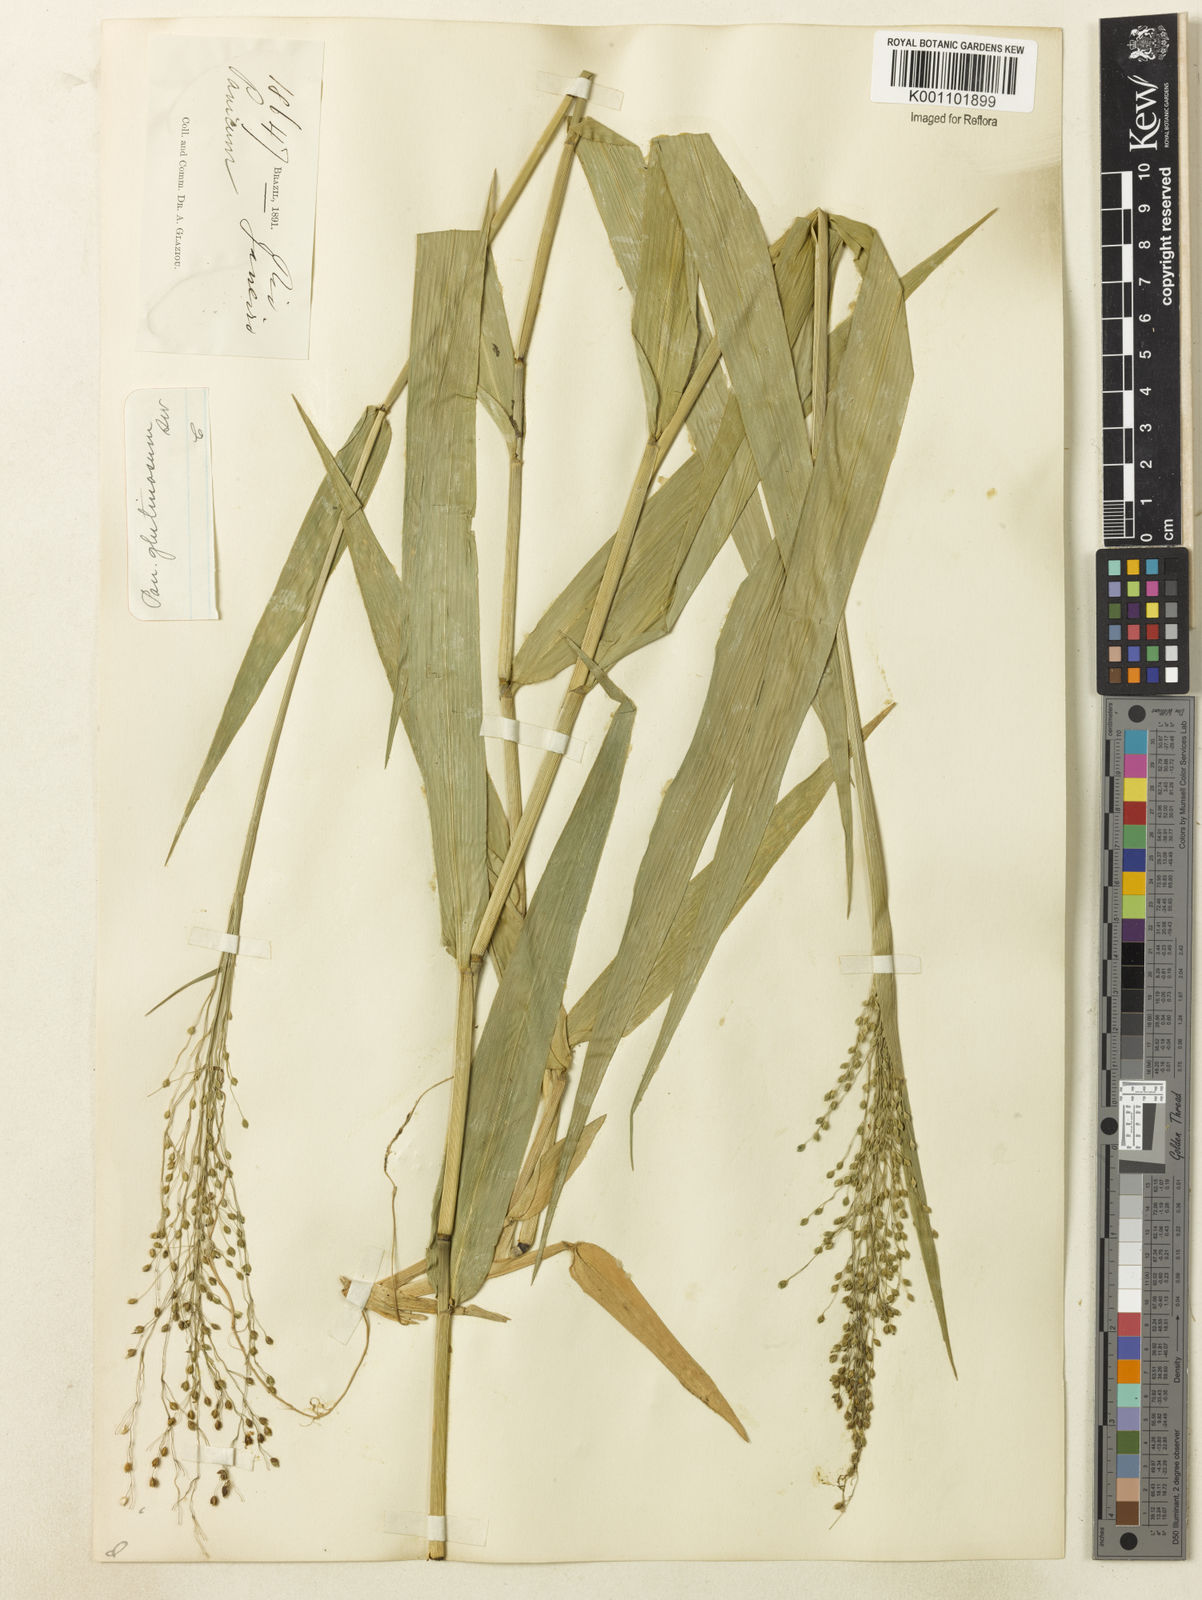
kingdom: Plantae
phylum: Tracheophyta
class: Liliopsida
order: Poales
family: Poaceae
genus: Homolepis
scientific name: Homolepis glutinosa
